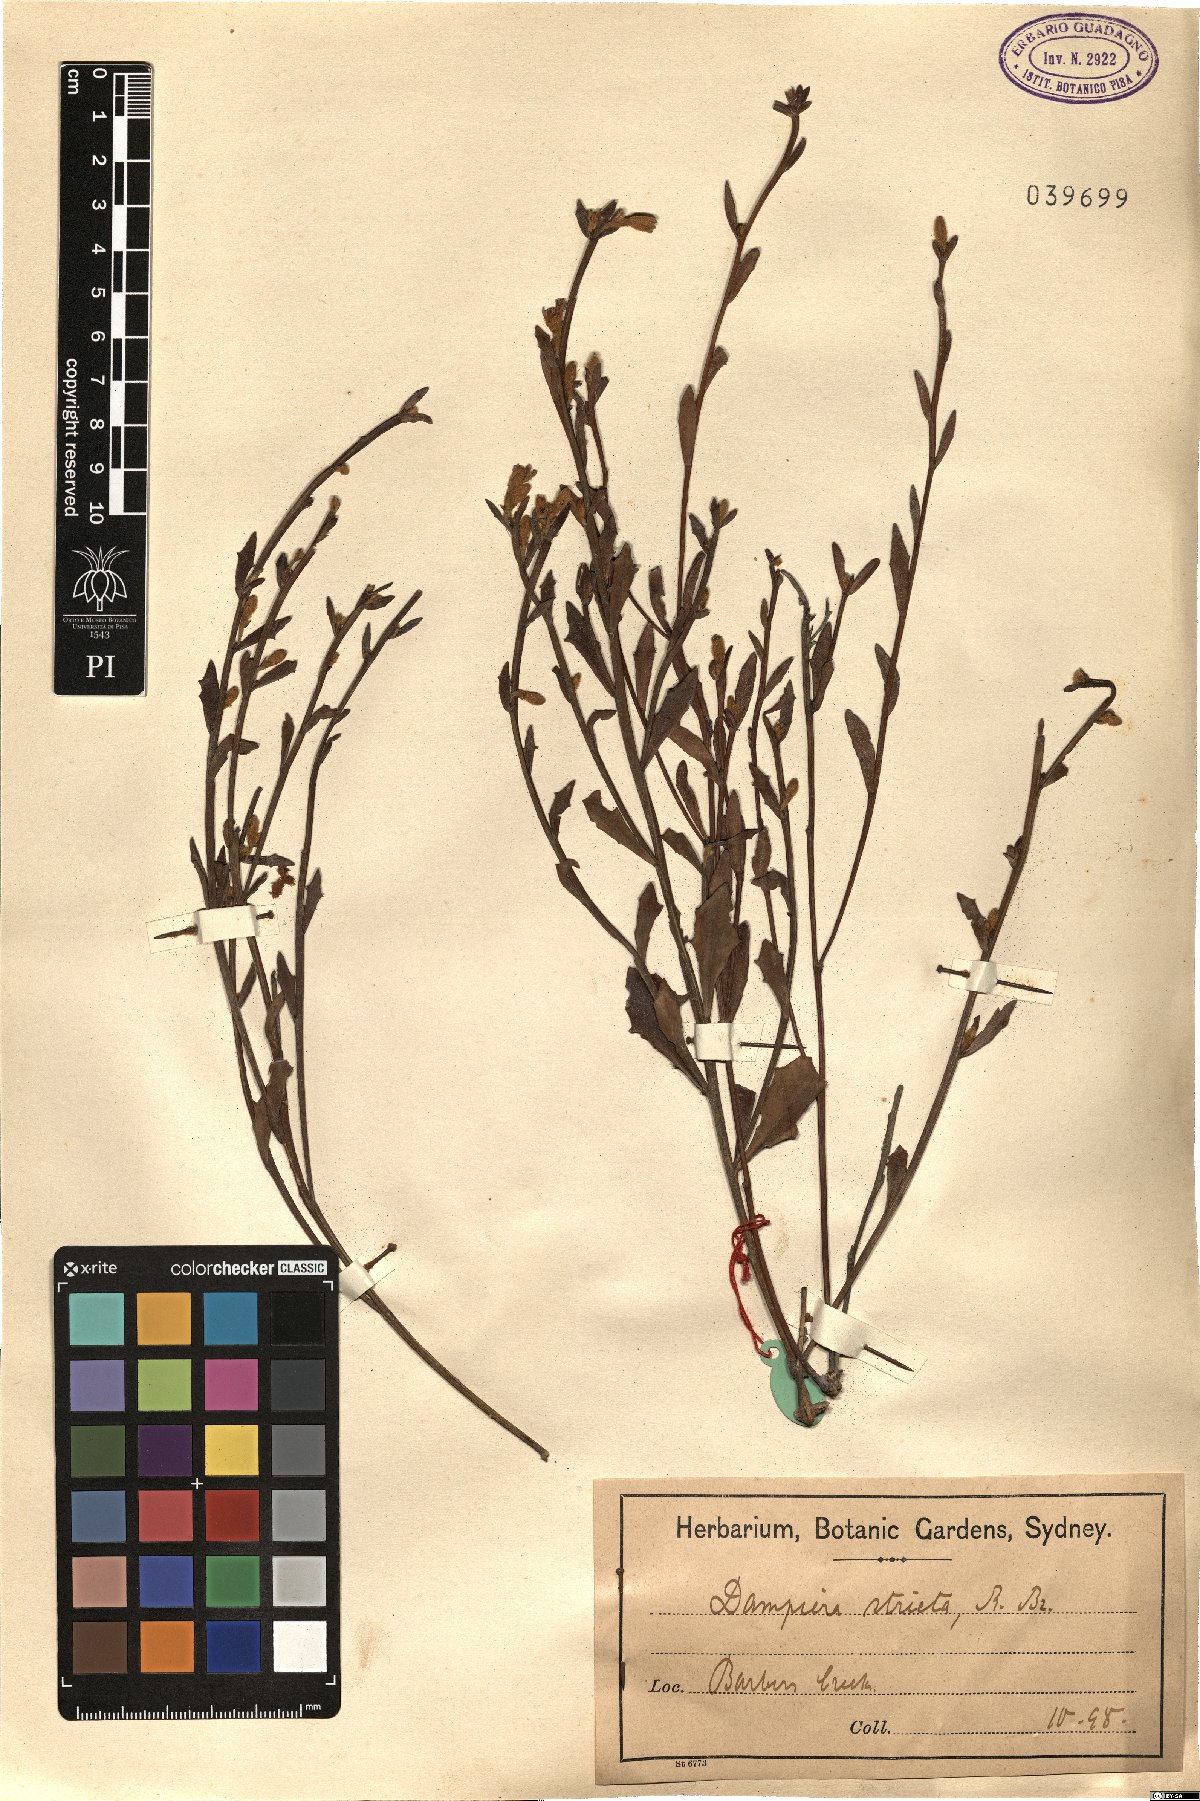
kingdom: Plantae
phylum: Tracheophyta
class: Magnoliopsida
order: Asterales
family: Goodeniaceae
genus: Dampiera
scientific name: Dampiera stricta
